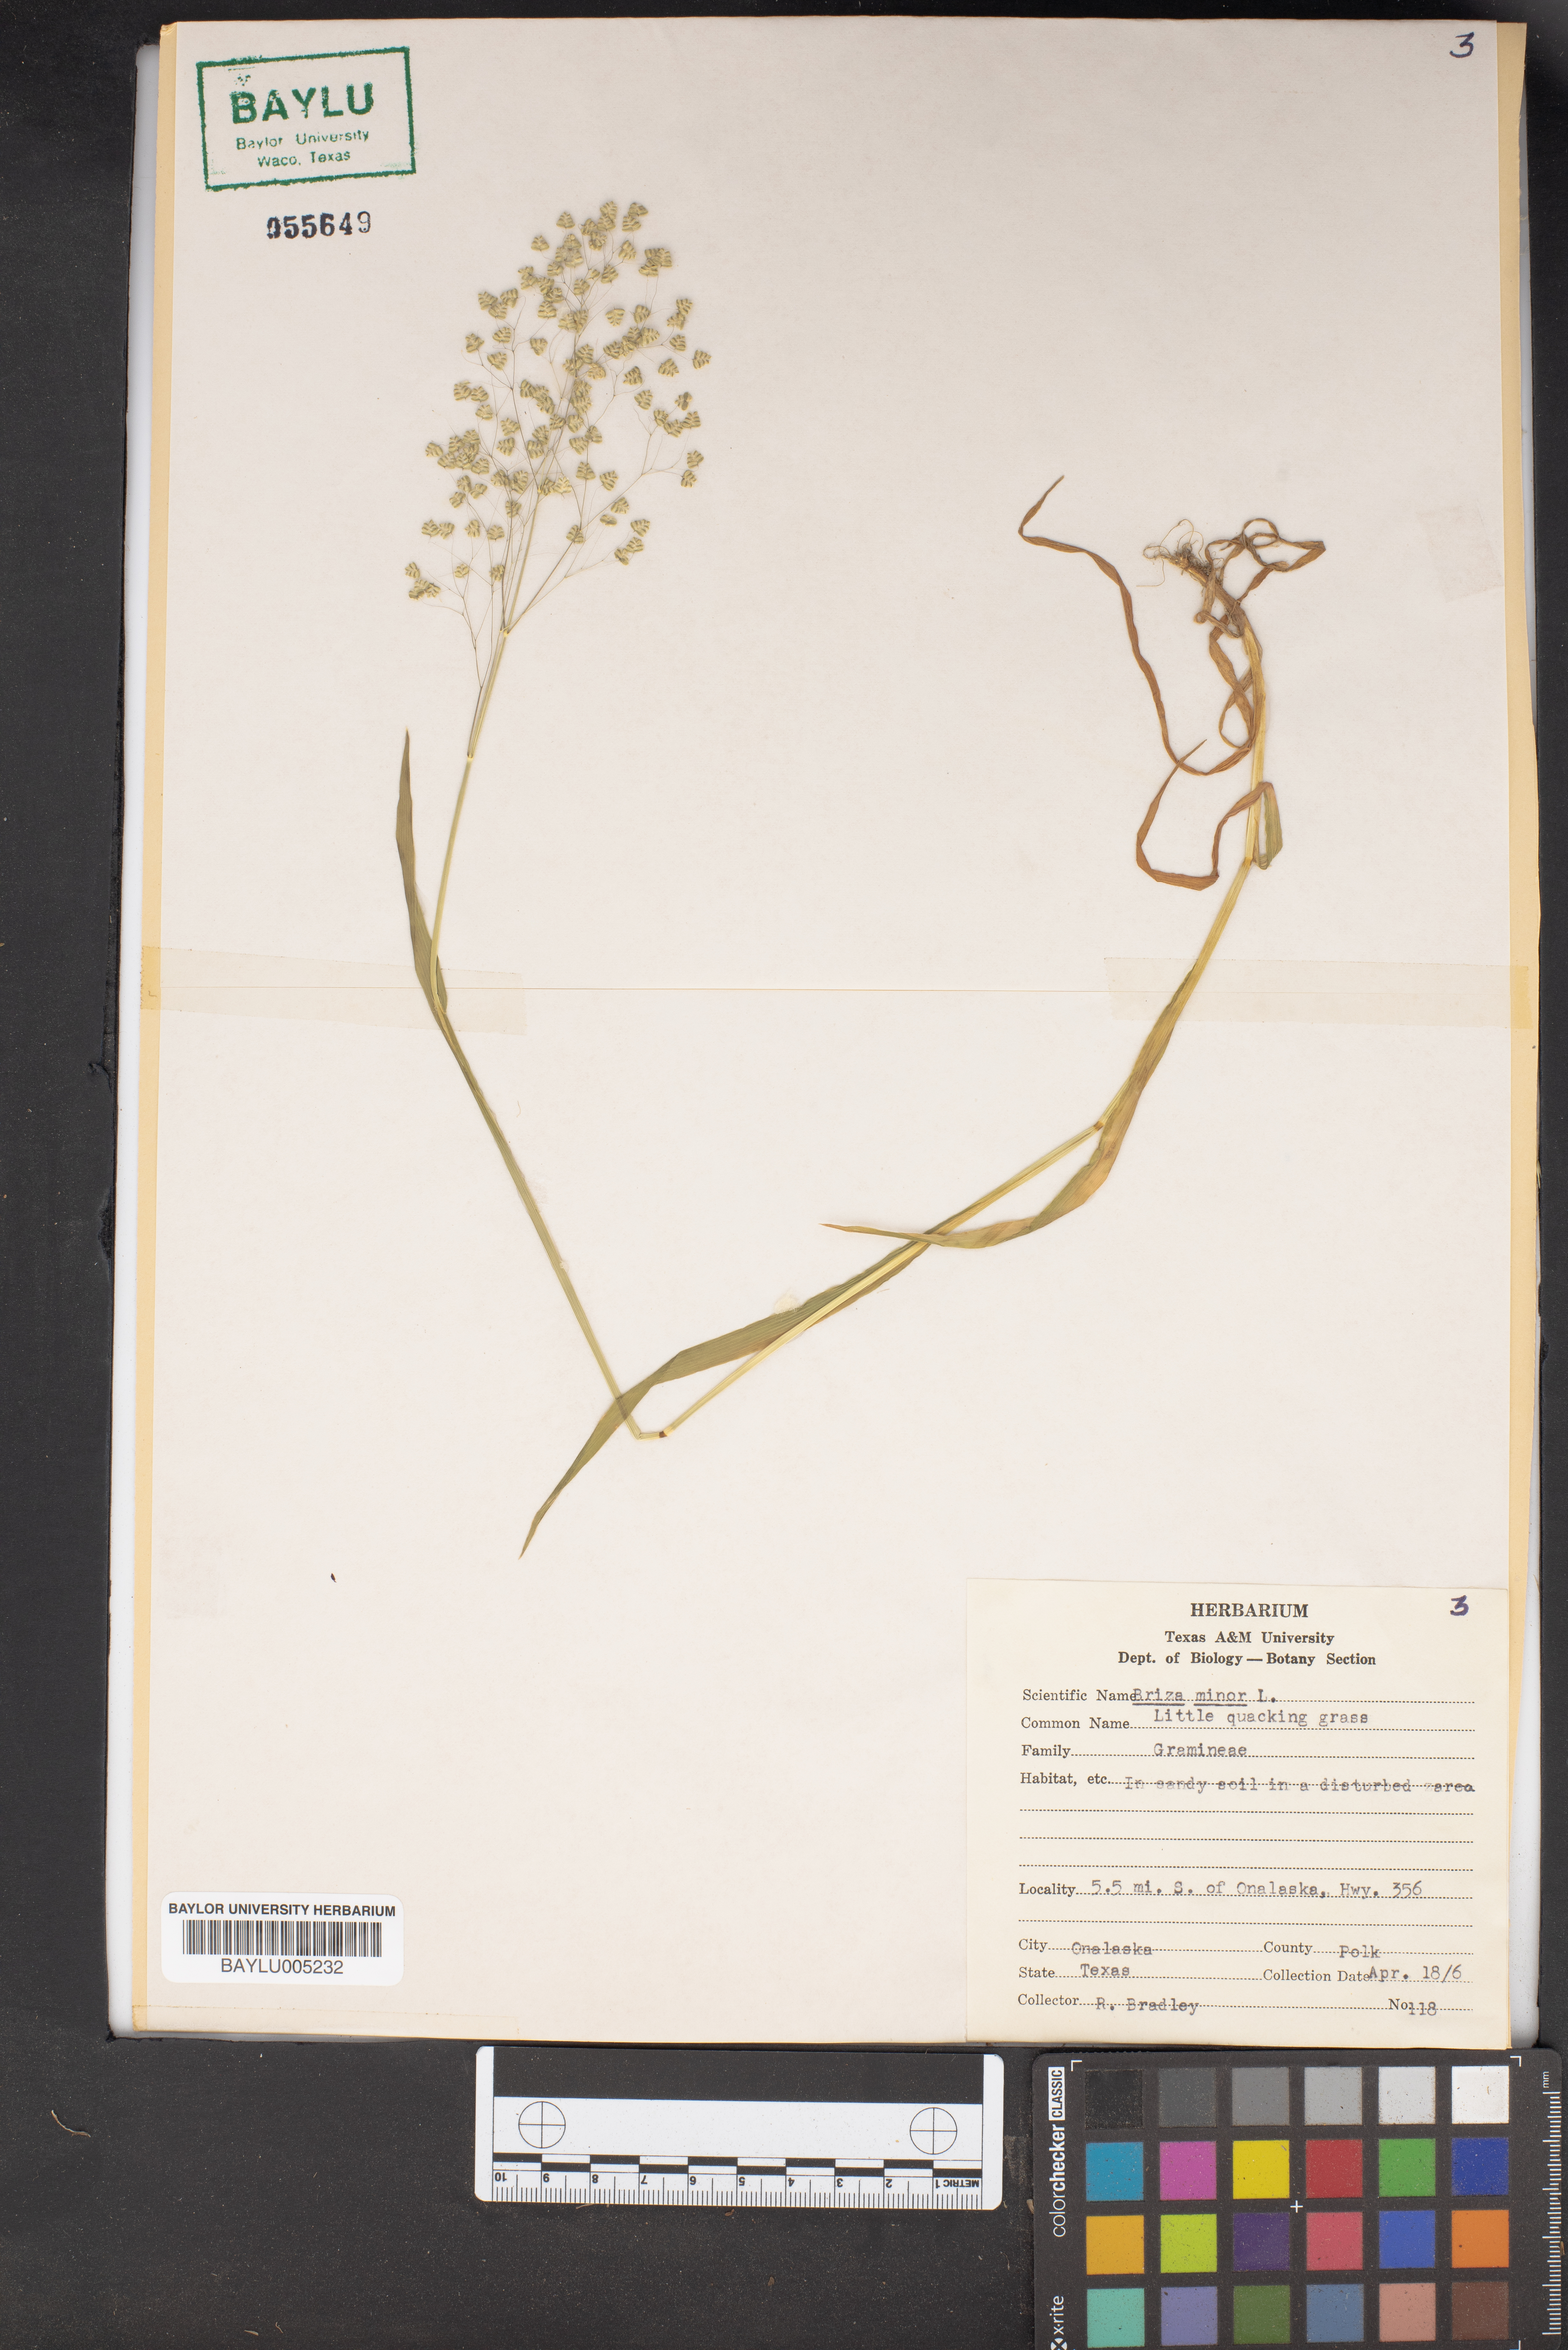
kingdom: Plantae
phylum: Tracheophyta
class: Liliopsida
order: Poales
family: Poaceae
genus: Briza
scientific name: Briza minor
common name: Lesser quaking-grass
